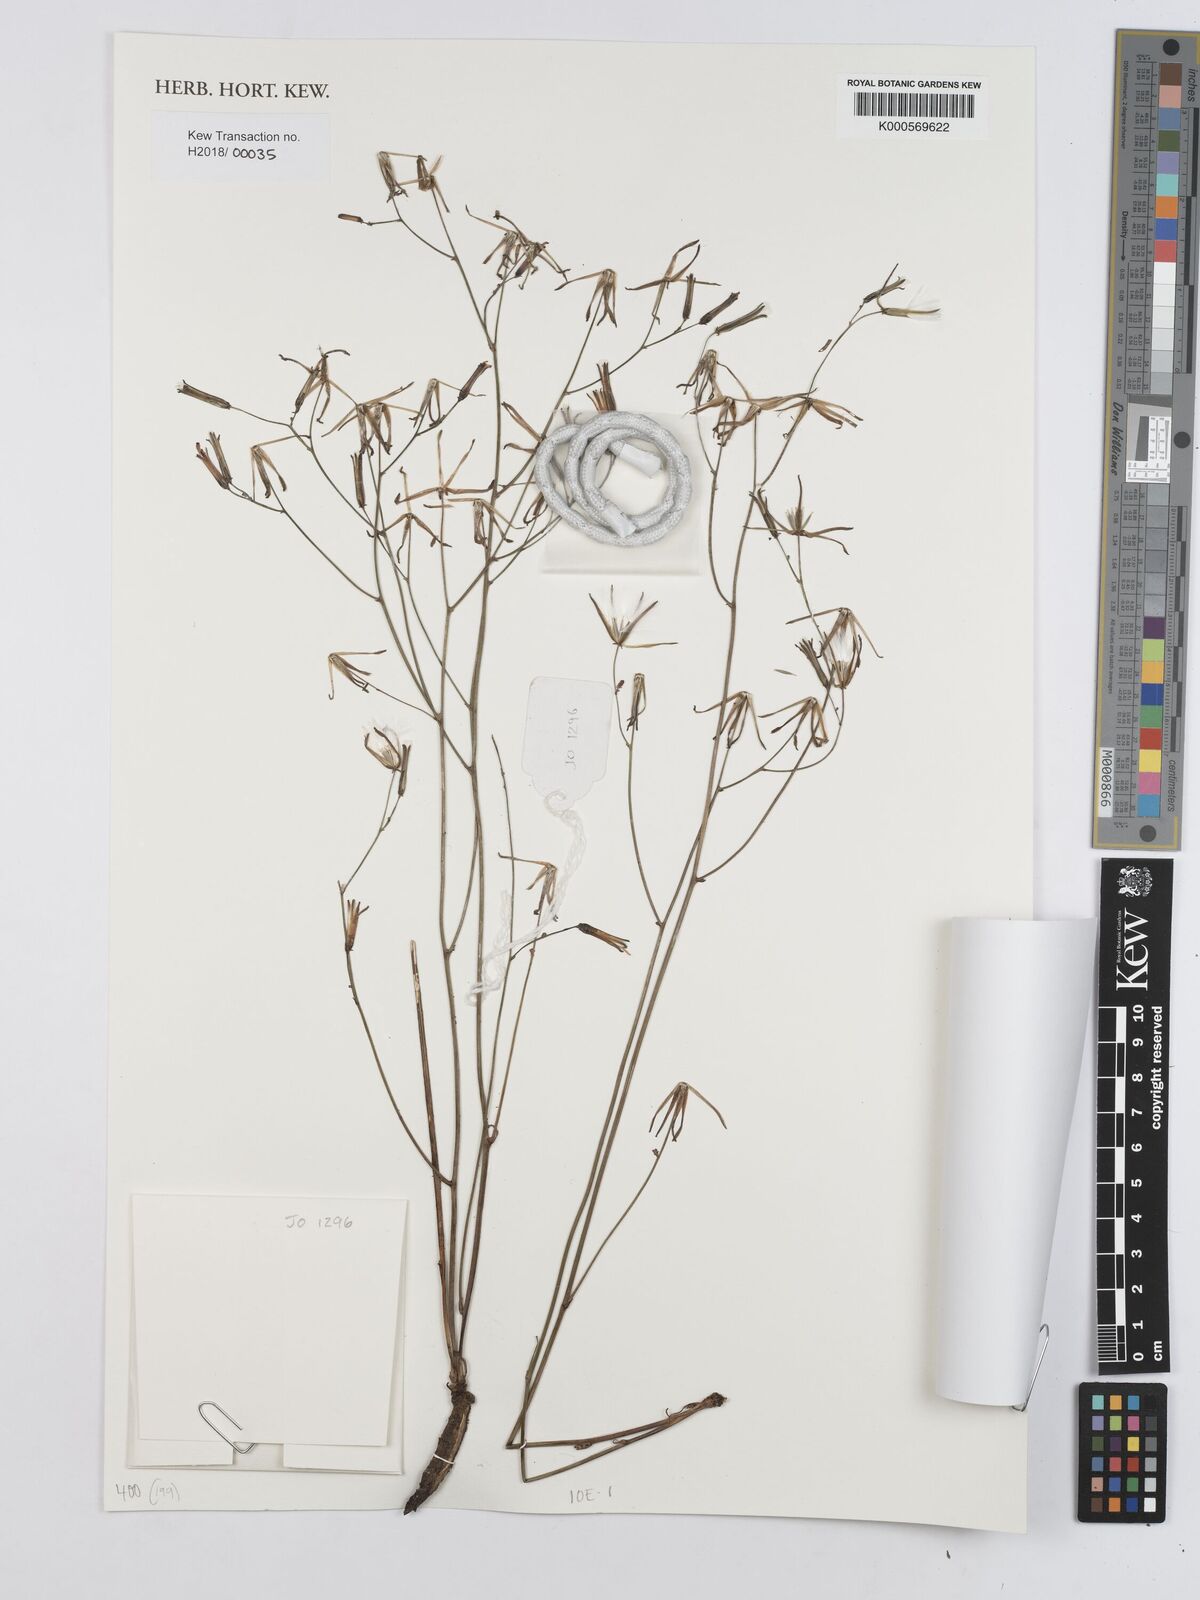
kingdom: Plantae
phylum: Tracheophyta
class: Magnoliopsida
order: Asterales
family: Asteraceae
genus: Launaea
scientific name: Launaea rarifolia
